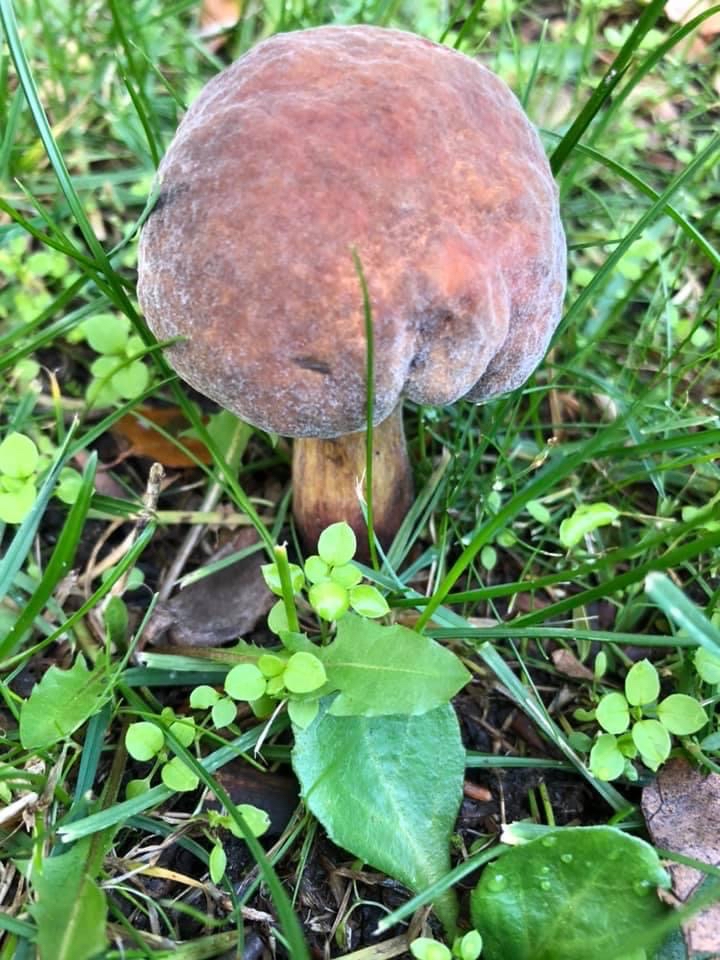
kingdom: Fungi
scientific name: Fungi
